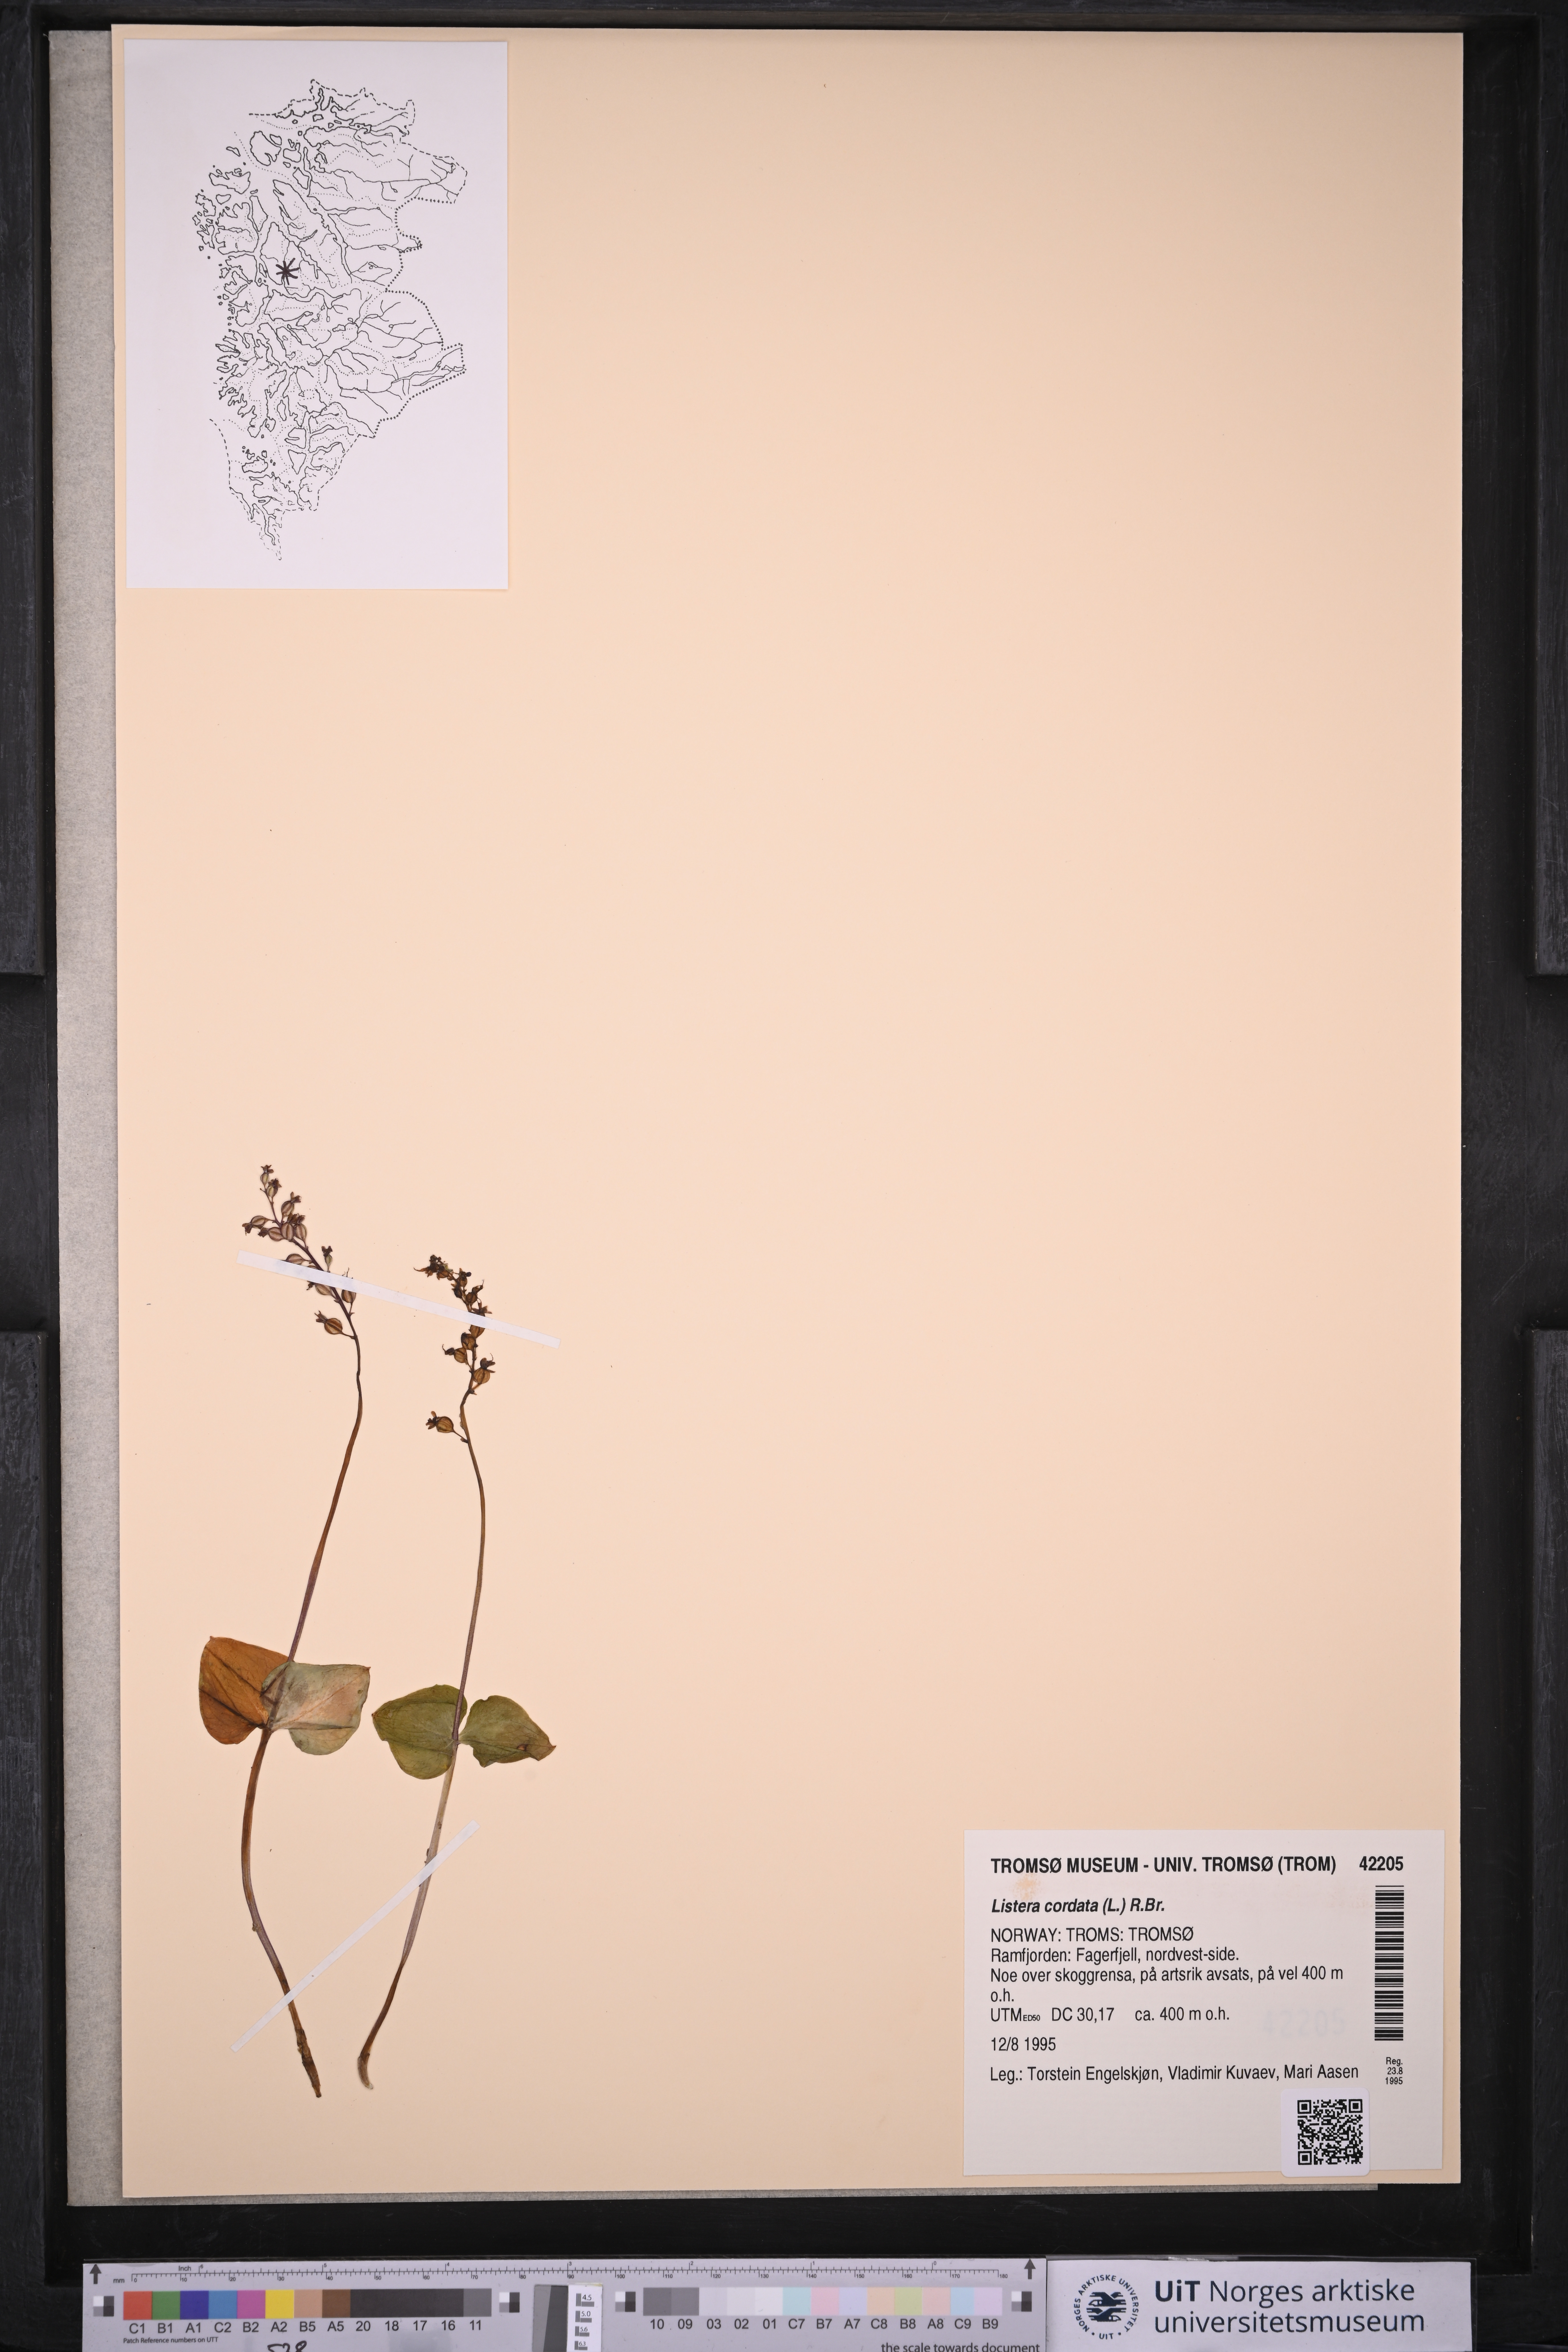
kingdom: Plantae
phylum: Tracheophyta
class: Liliopsida
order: Asparagales
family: Orchidaceae
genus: Neottia
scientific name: Neottia cordata
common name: Lesser twayblade
